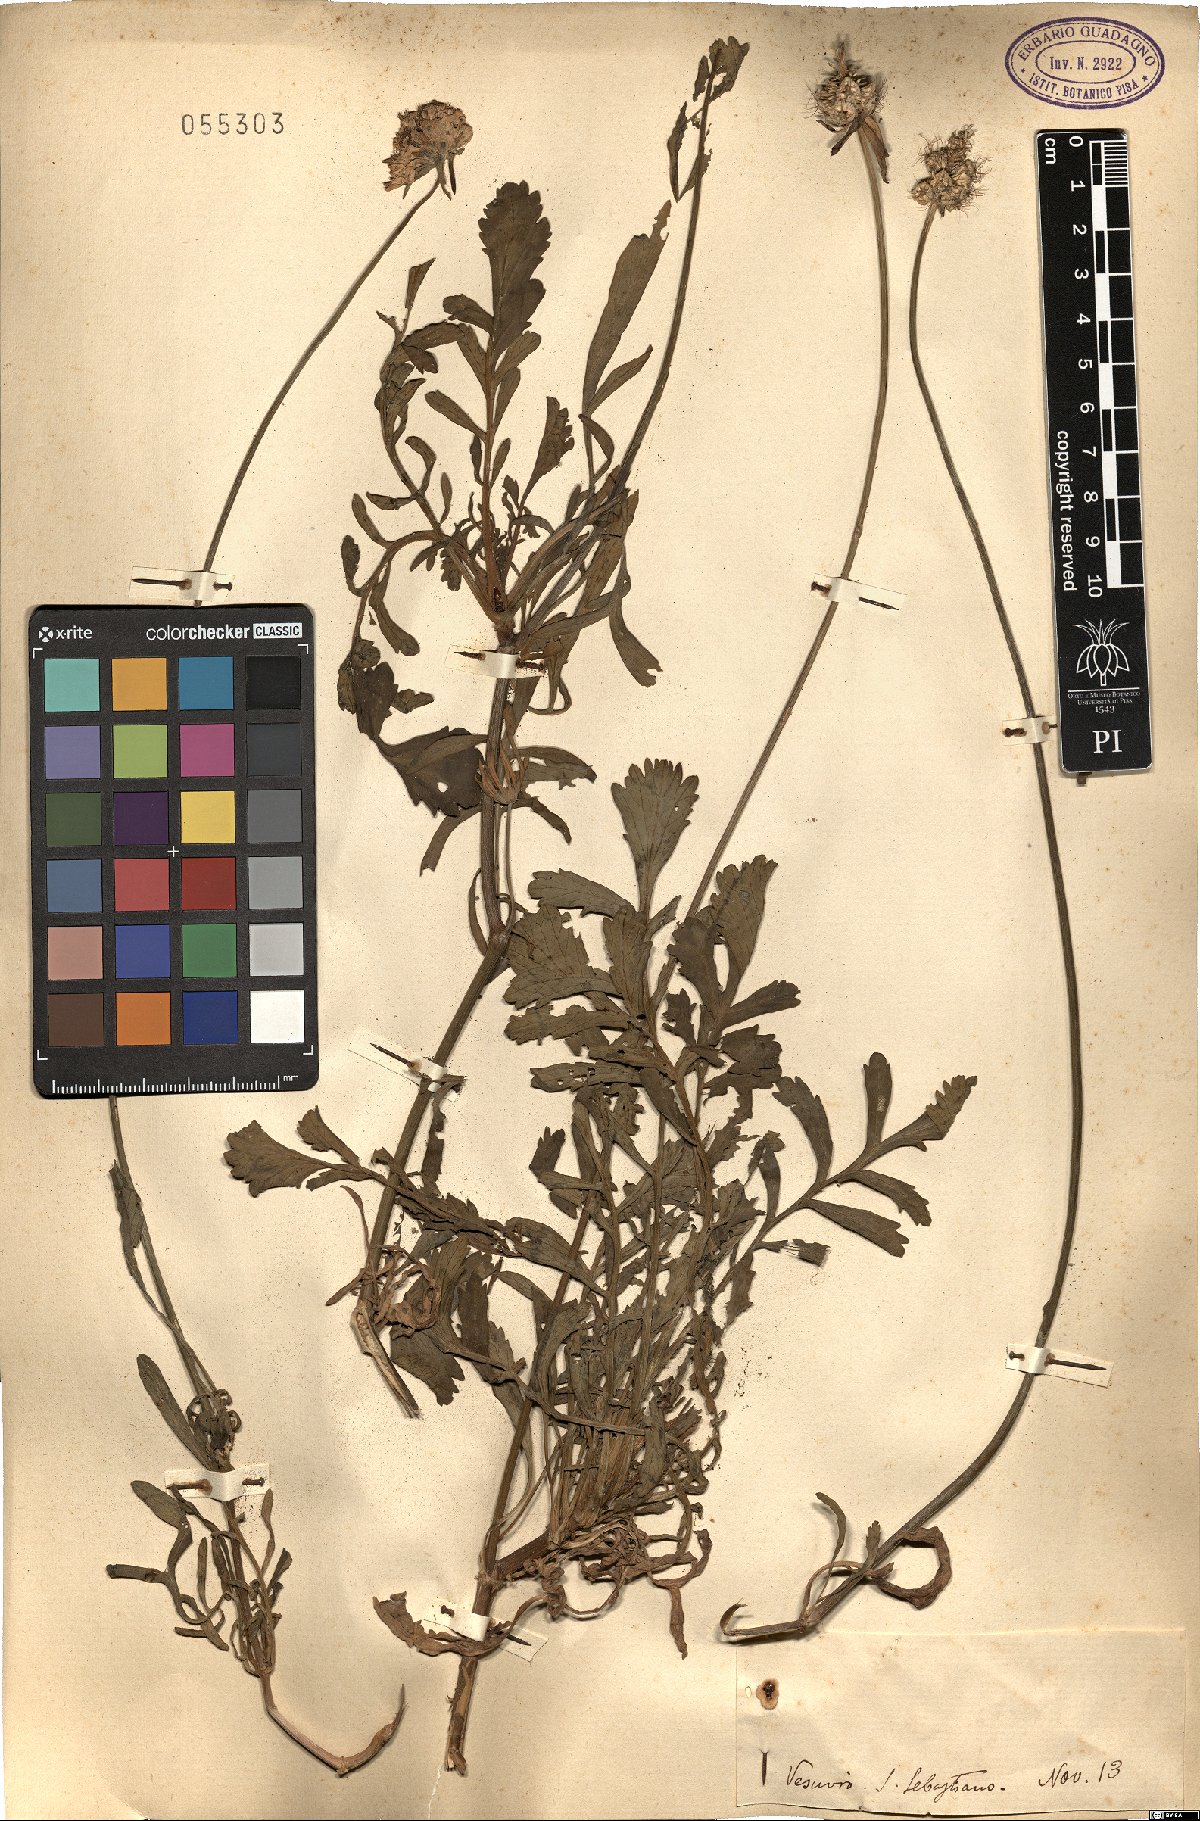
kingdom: Plantae
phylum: Tracheophyta
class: Magnoliopsida
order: Dipsacales
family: Caprifoliaceae
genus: Scabiosa
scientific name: Scabiosa
